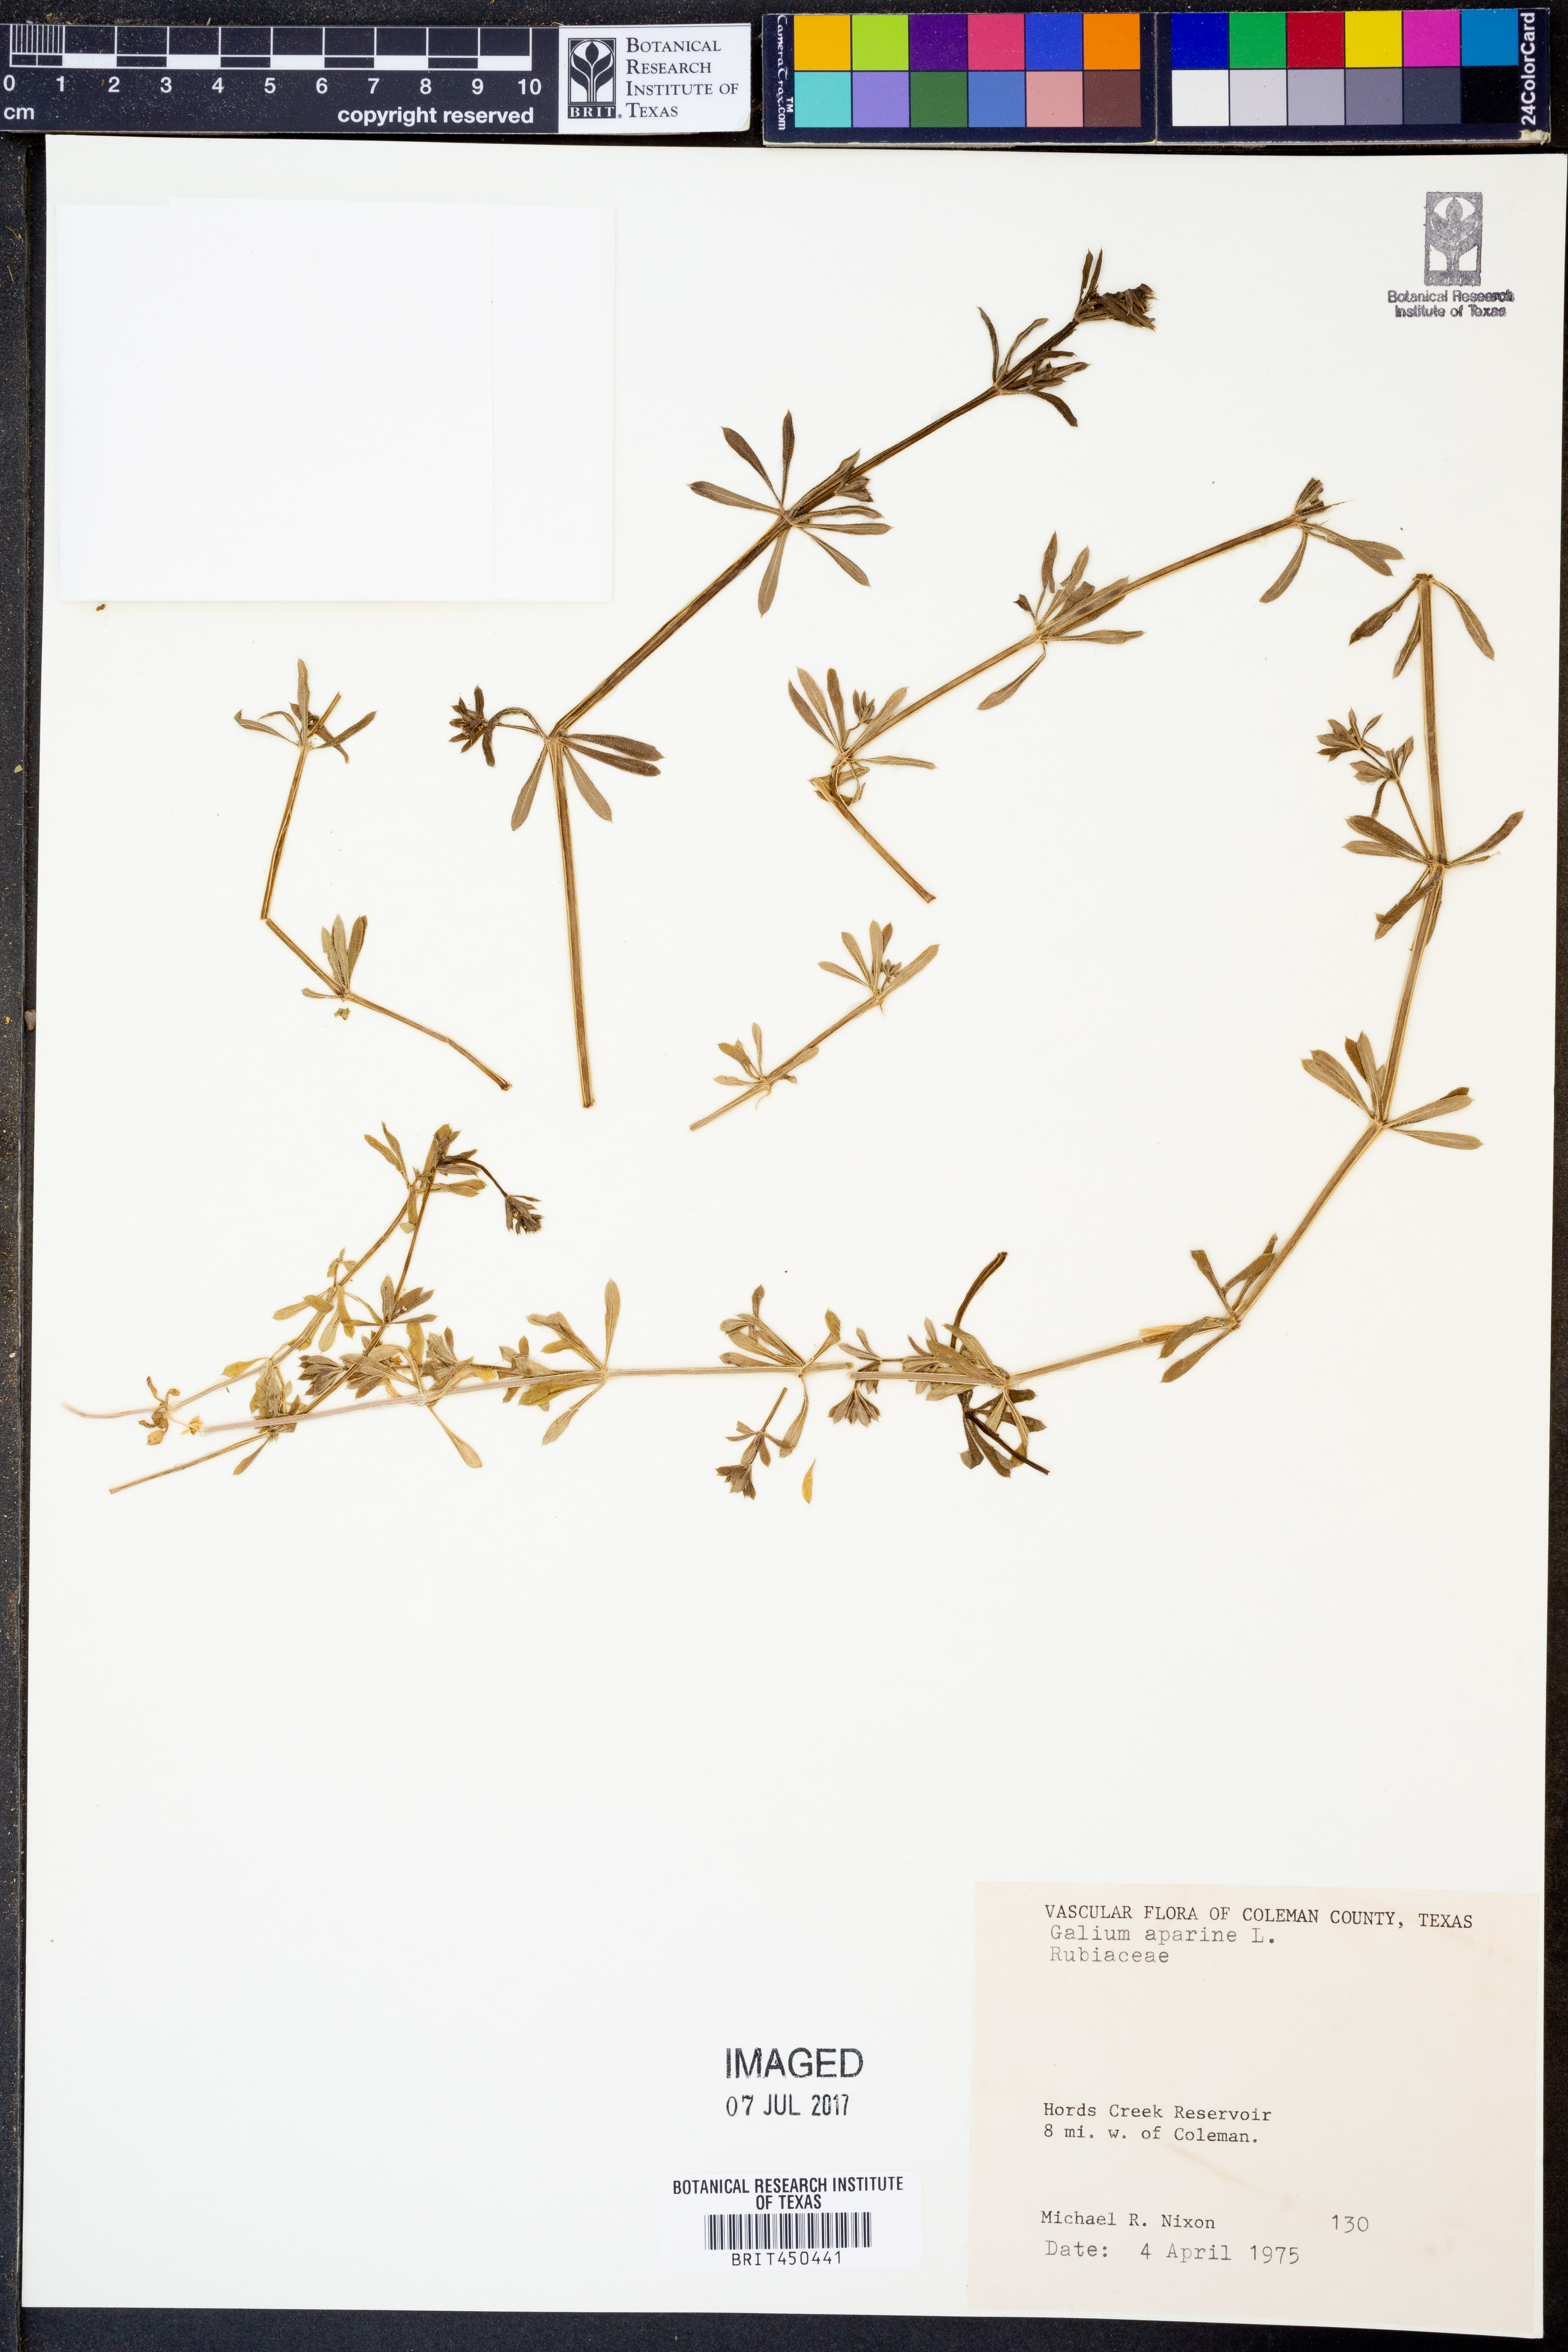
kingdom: Plantae
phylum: Tracheophyta
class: Magnoliopsida
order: Gentianales
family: Rubiaceae
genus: Galium
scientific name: Galium aparine
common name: Cleavers
